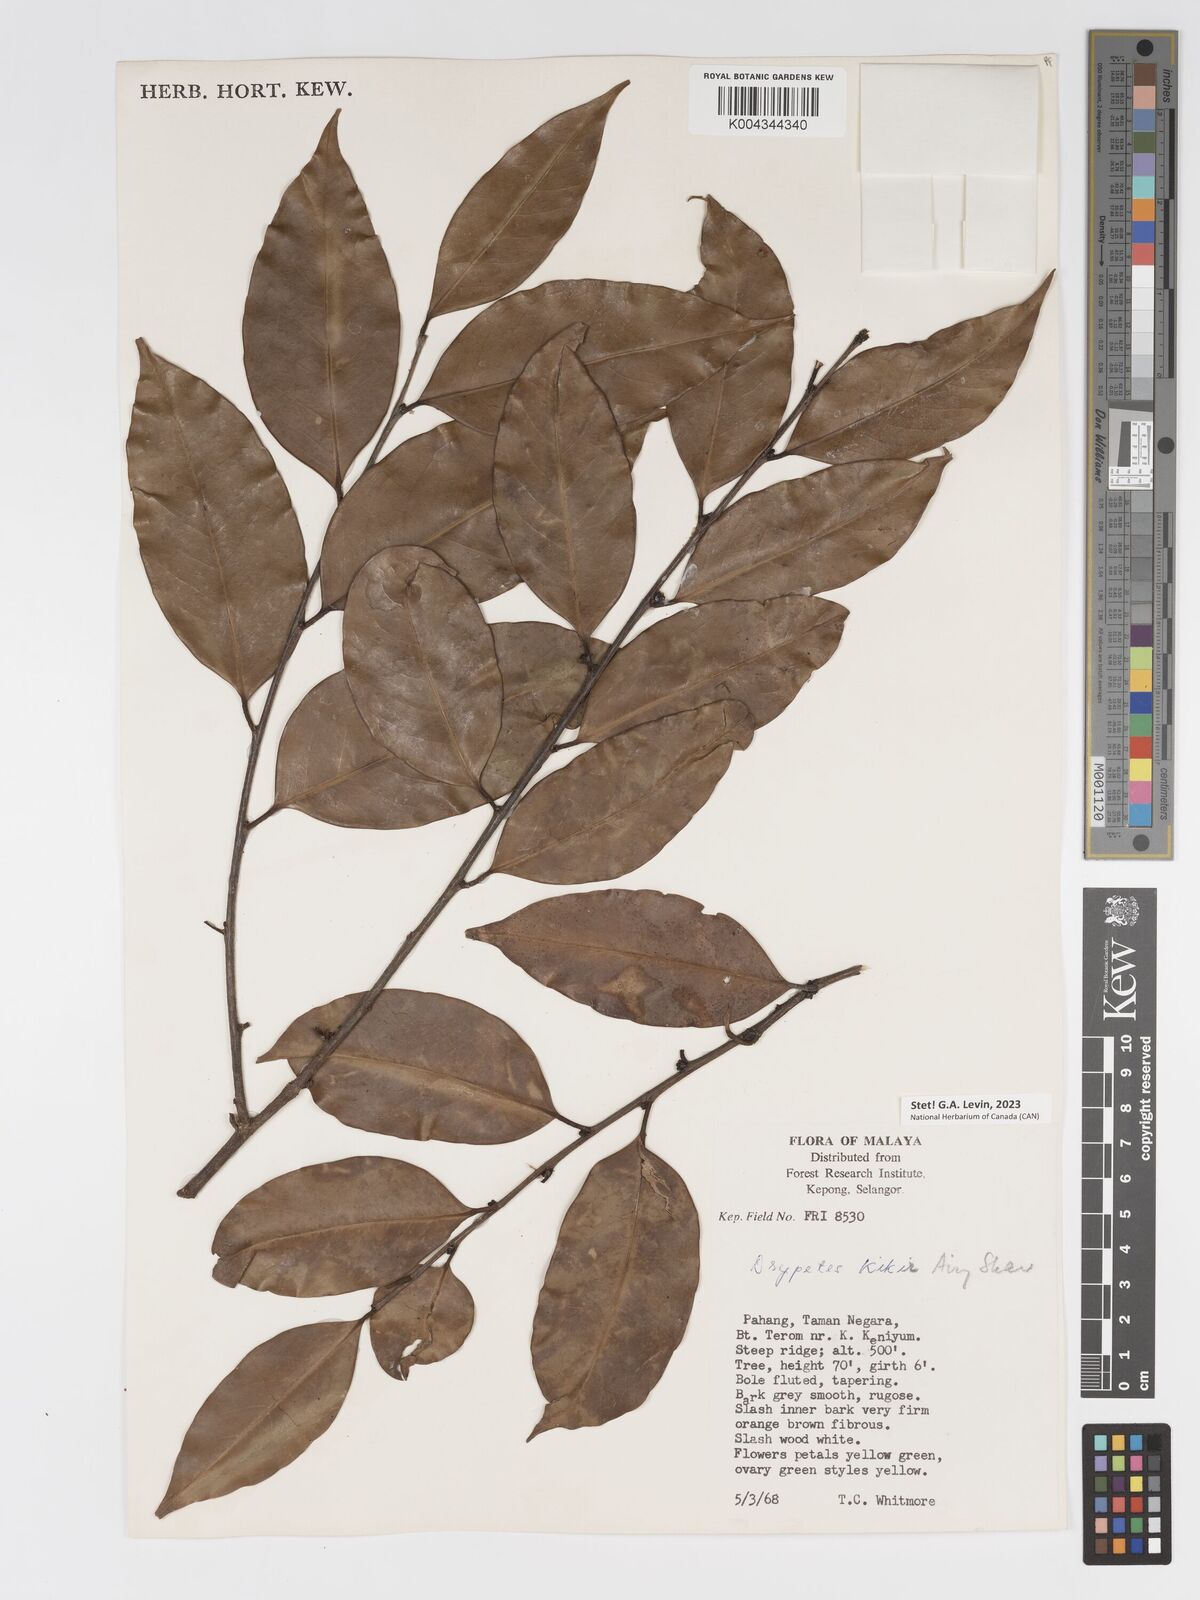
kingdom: Plantae
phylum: Tracheophyta
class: Magnoliopsida
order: Malpighiales
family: Putranjivaceae
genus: Drypetes
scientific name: Drypetes kikir
